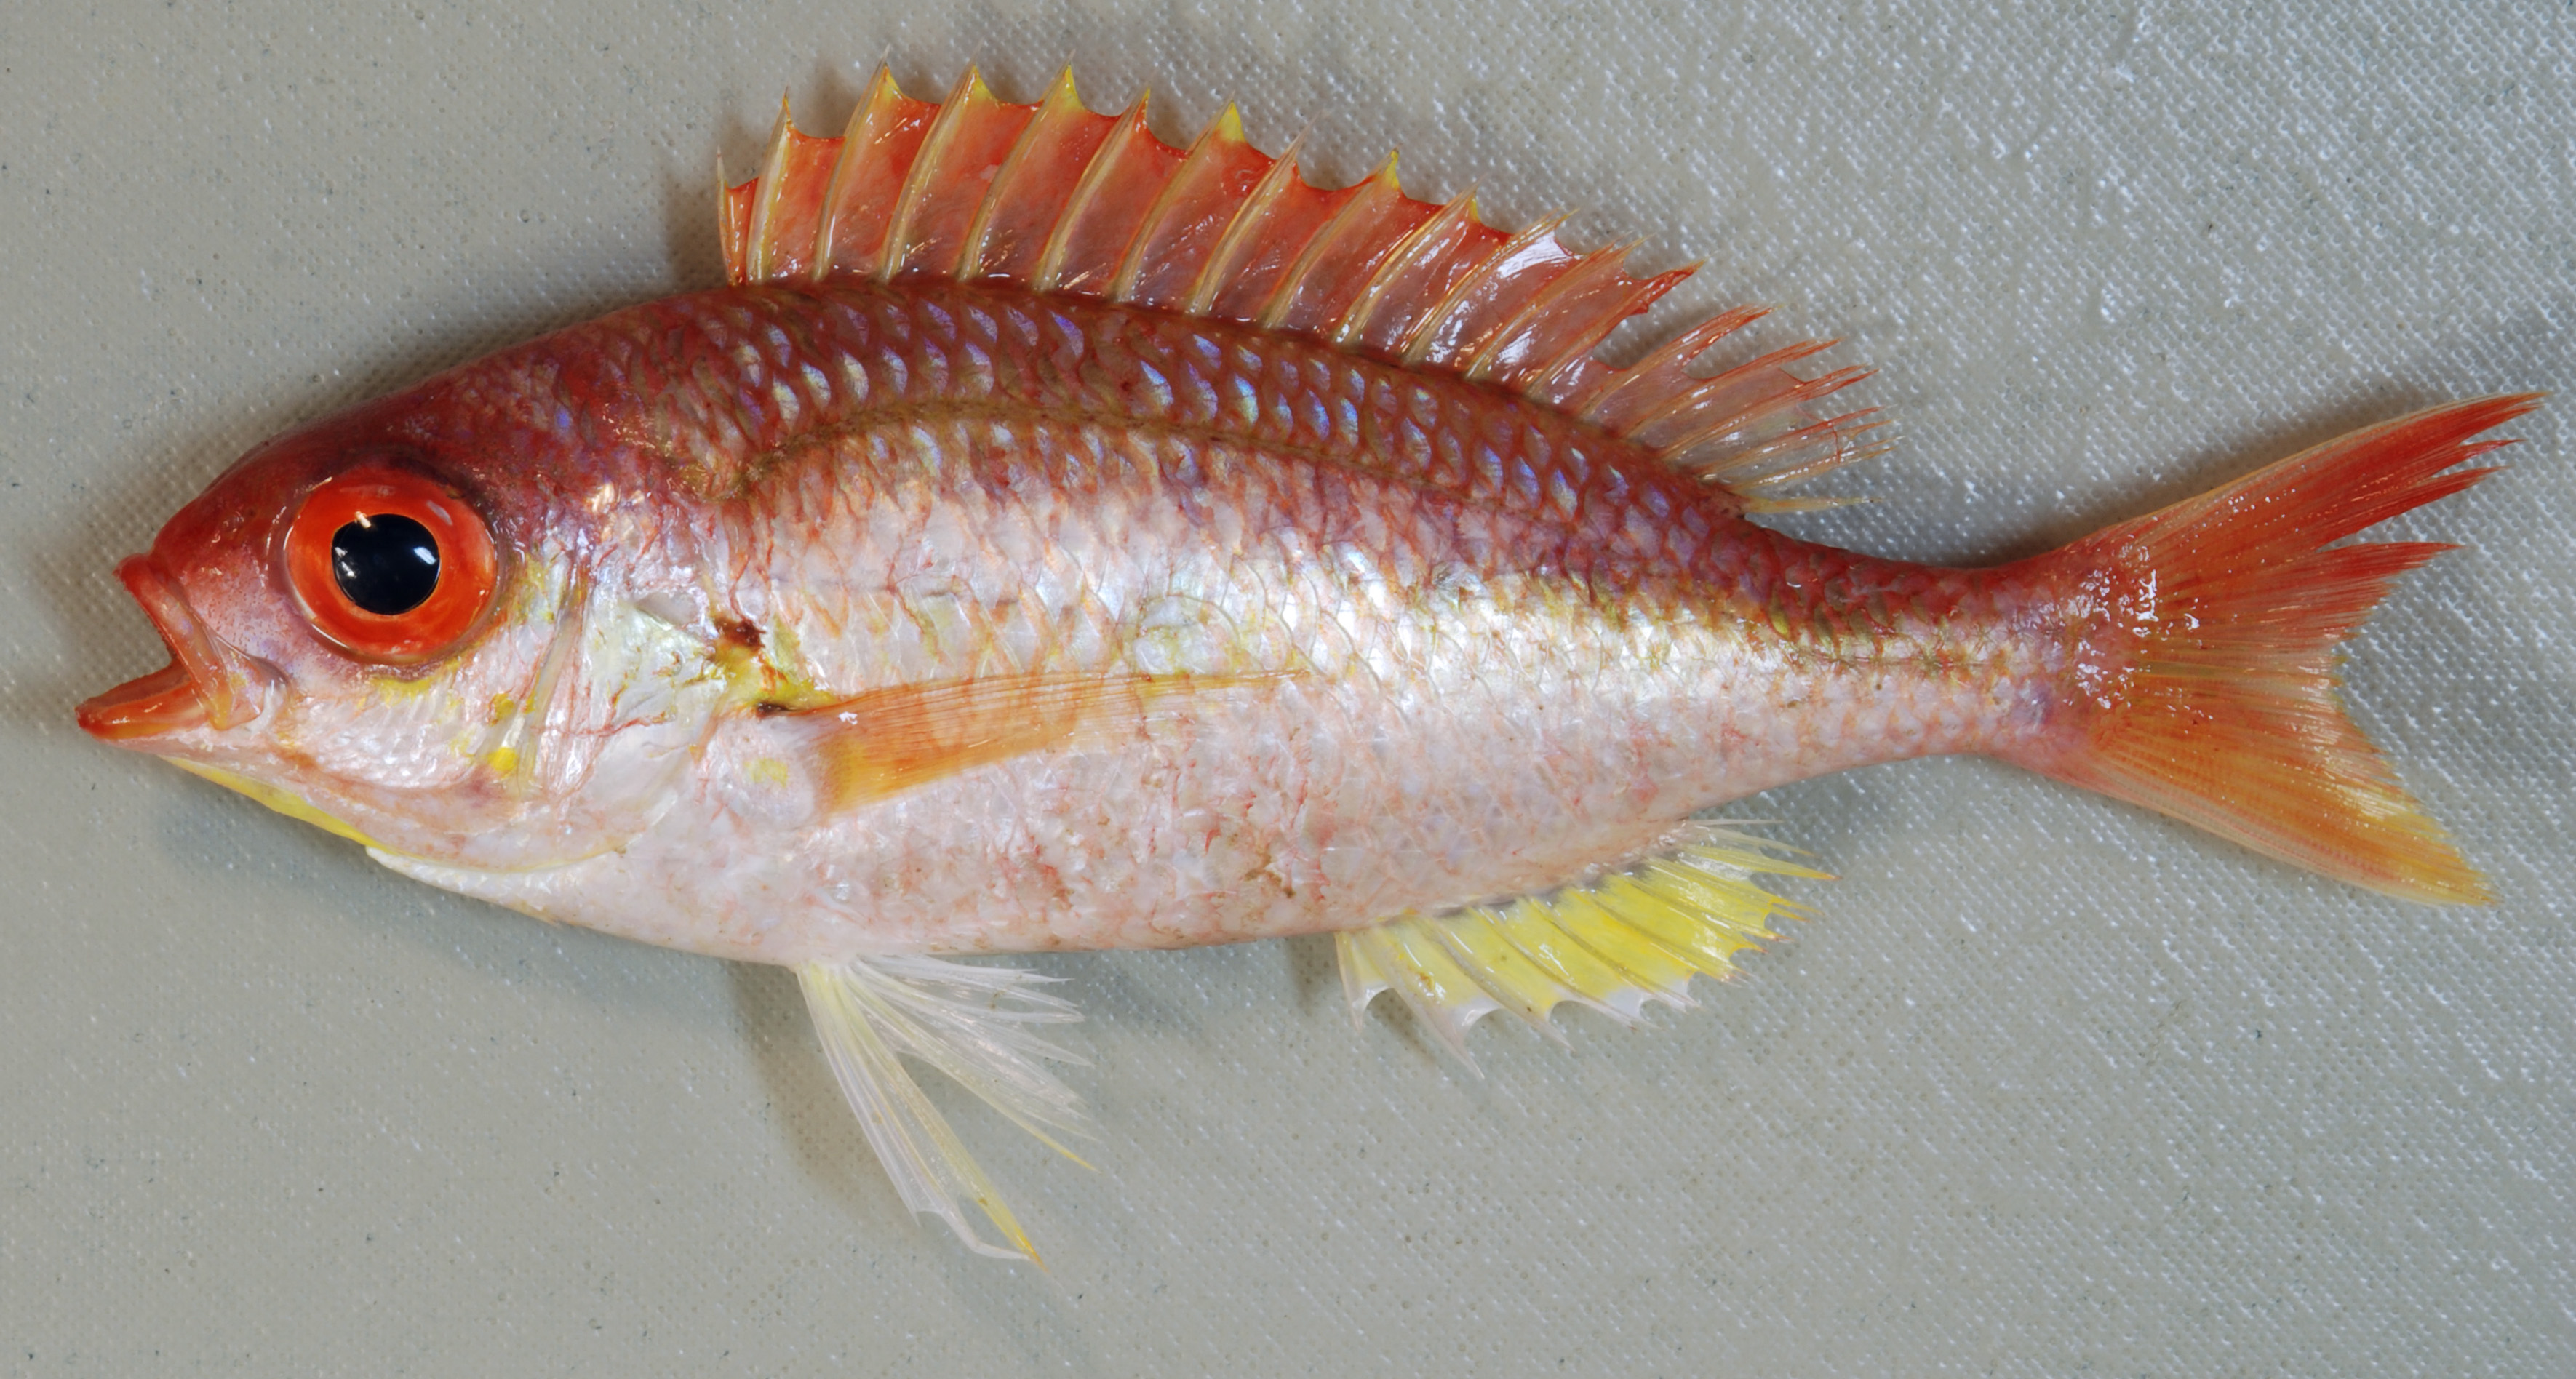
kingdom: Animalia
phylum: Chordata
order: Perciformes
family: Nemipteridae
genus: Parascolopsis
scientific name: Parascolopsis eriomma
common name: Rosy dwarf monocle bream
